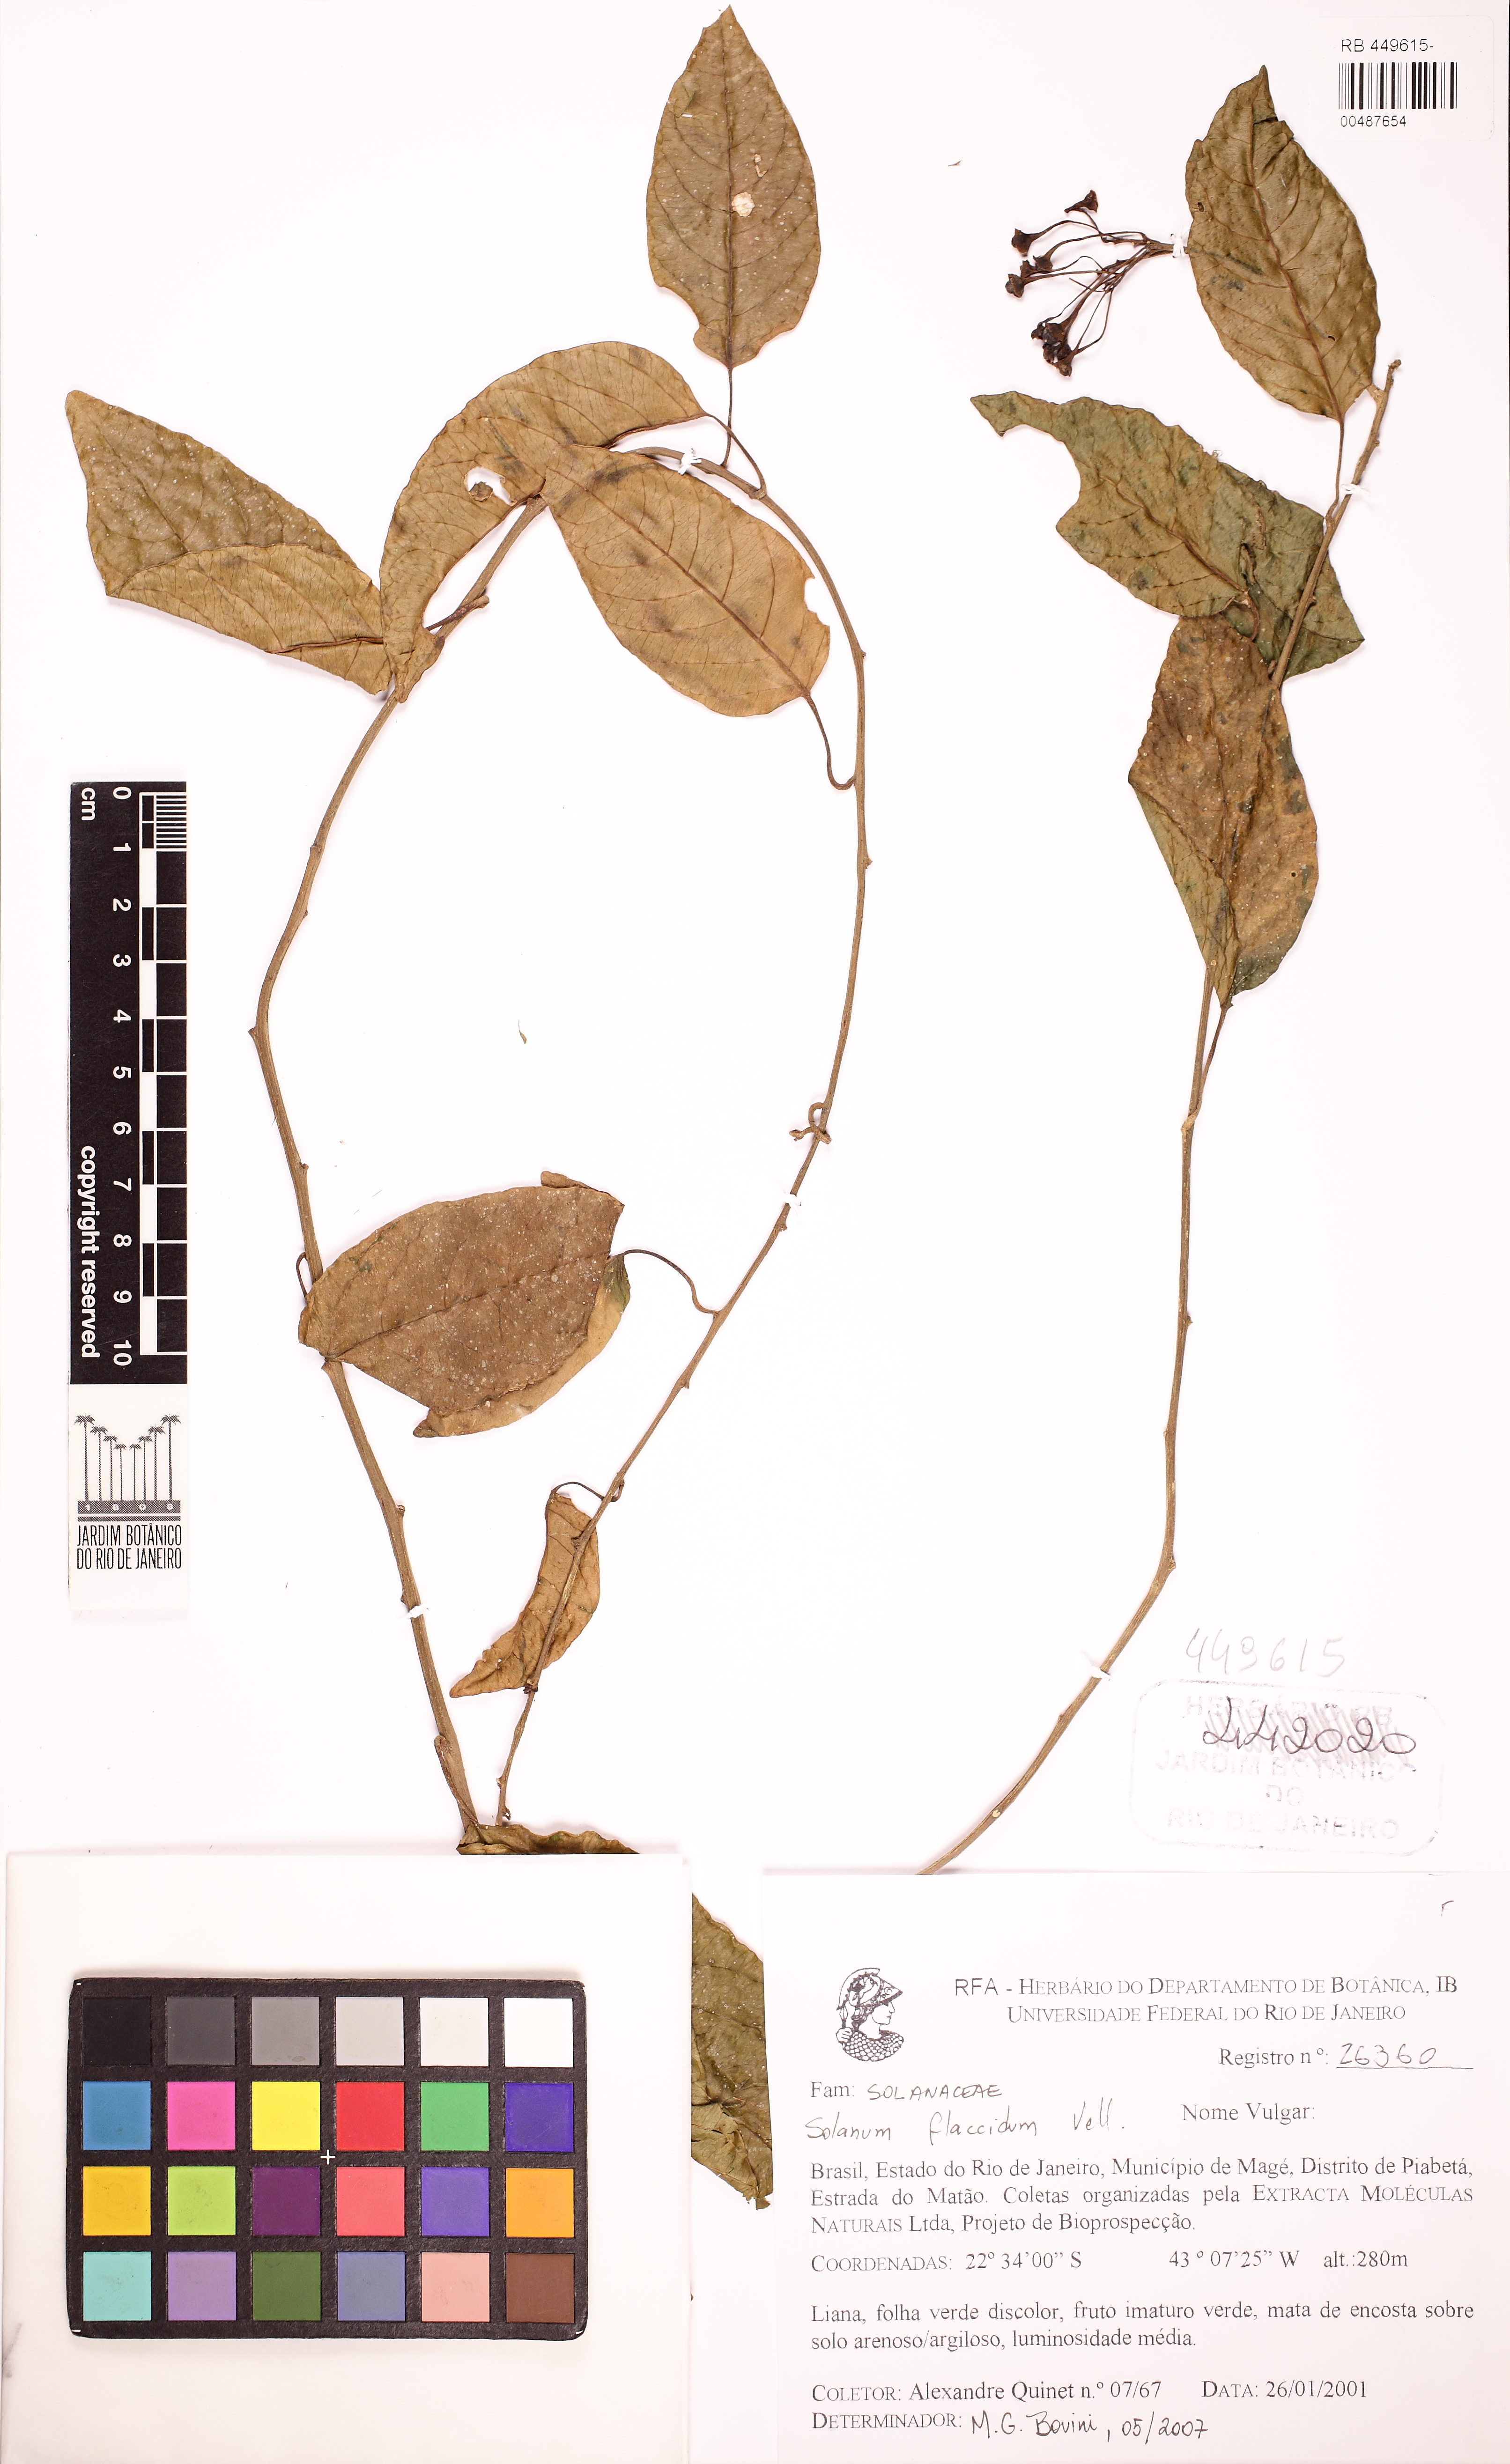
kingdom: Plantae
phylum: Tracheophyta
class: Magnoliopsida
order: Solanales
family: Solanaceae
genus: Solanum
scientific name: Solanum flaccidum
